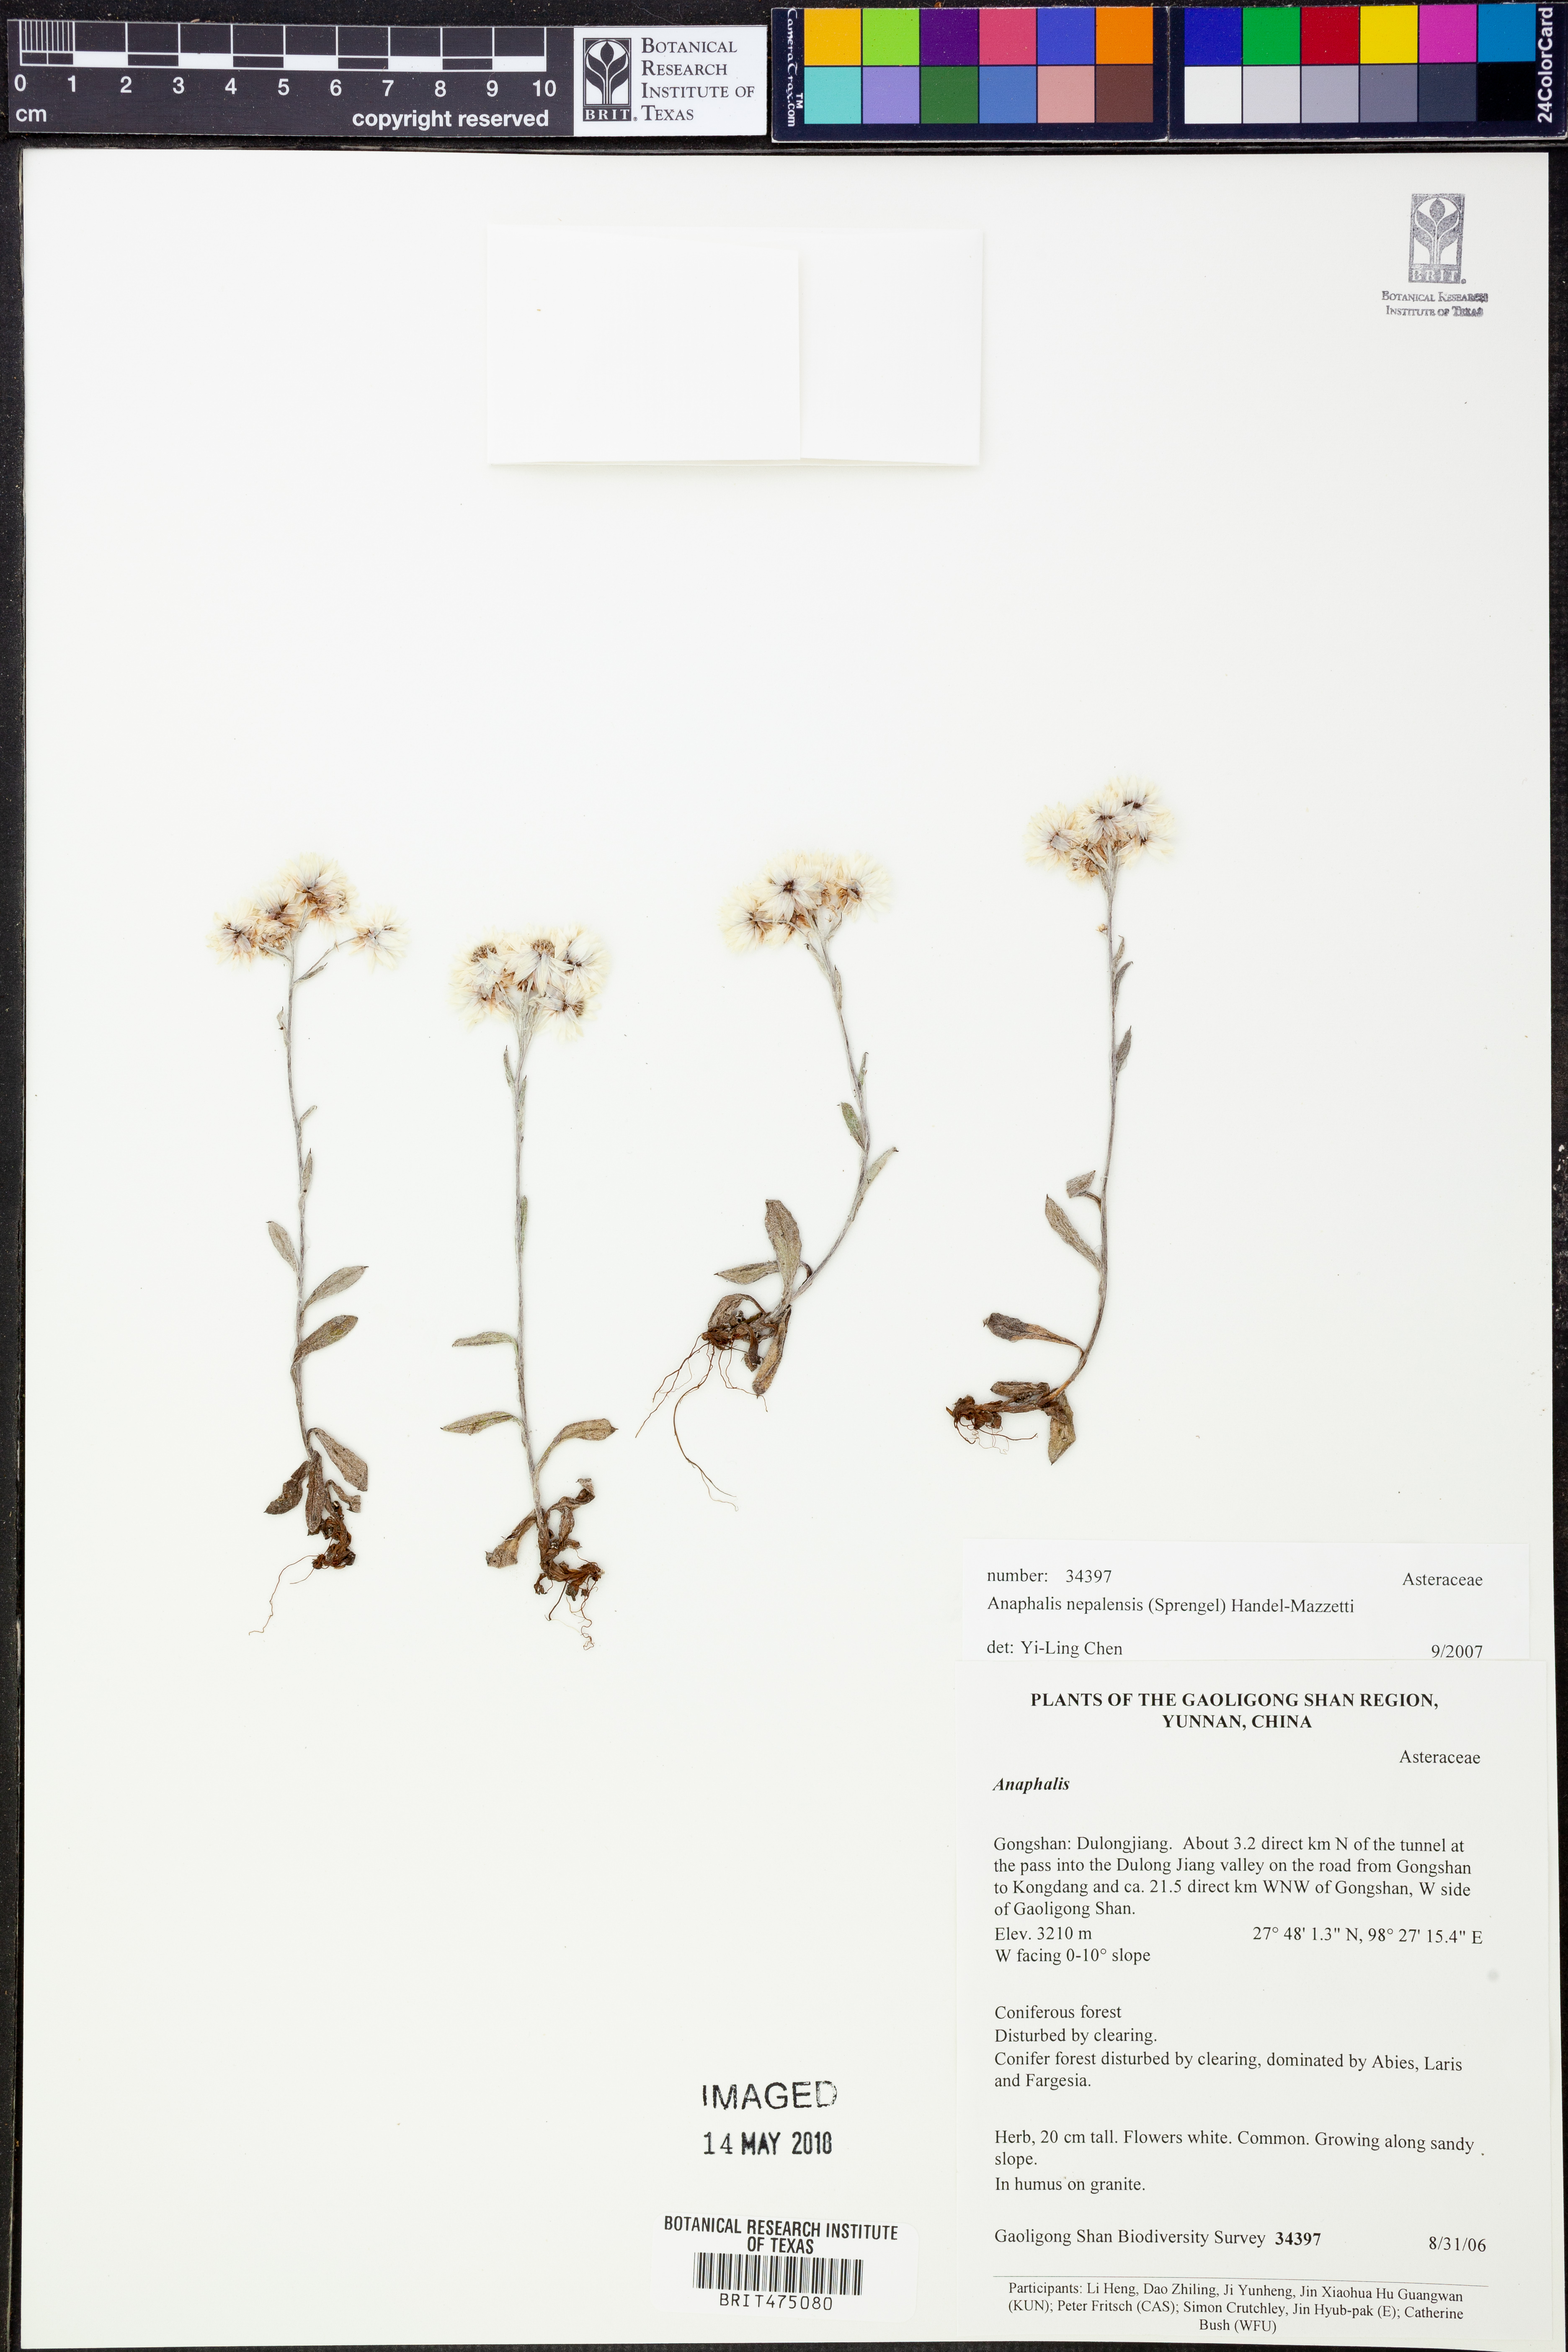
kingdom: Plantae
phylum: Tracheophyta
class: Magnoliopsida
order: Asterales
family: Asteraceae
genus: Anaphalis
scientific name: Anaphalis nepalensis
